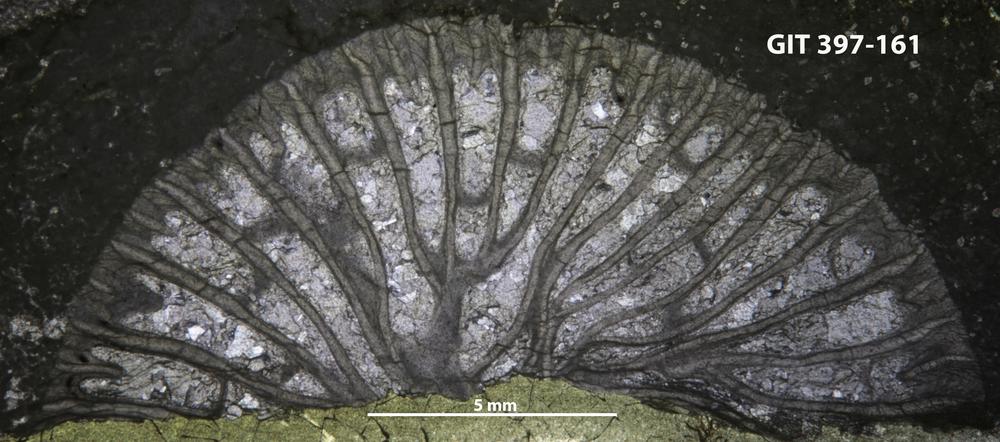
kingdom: Animalia
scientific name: Animalia
